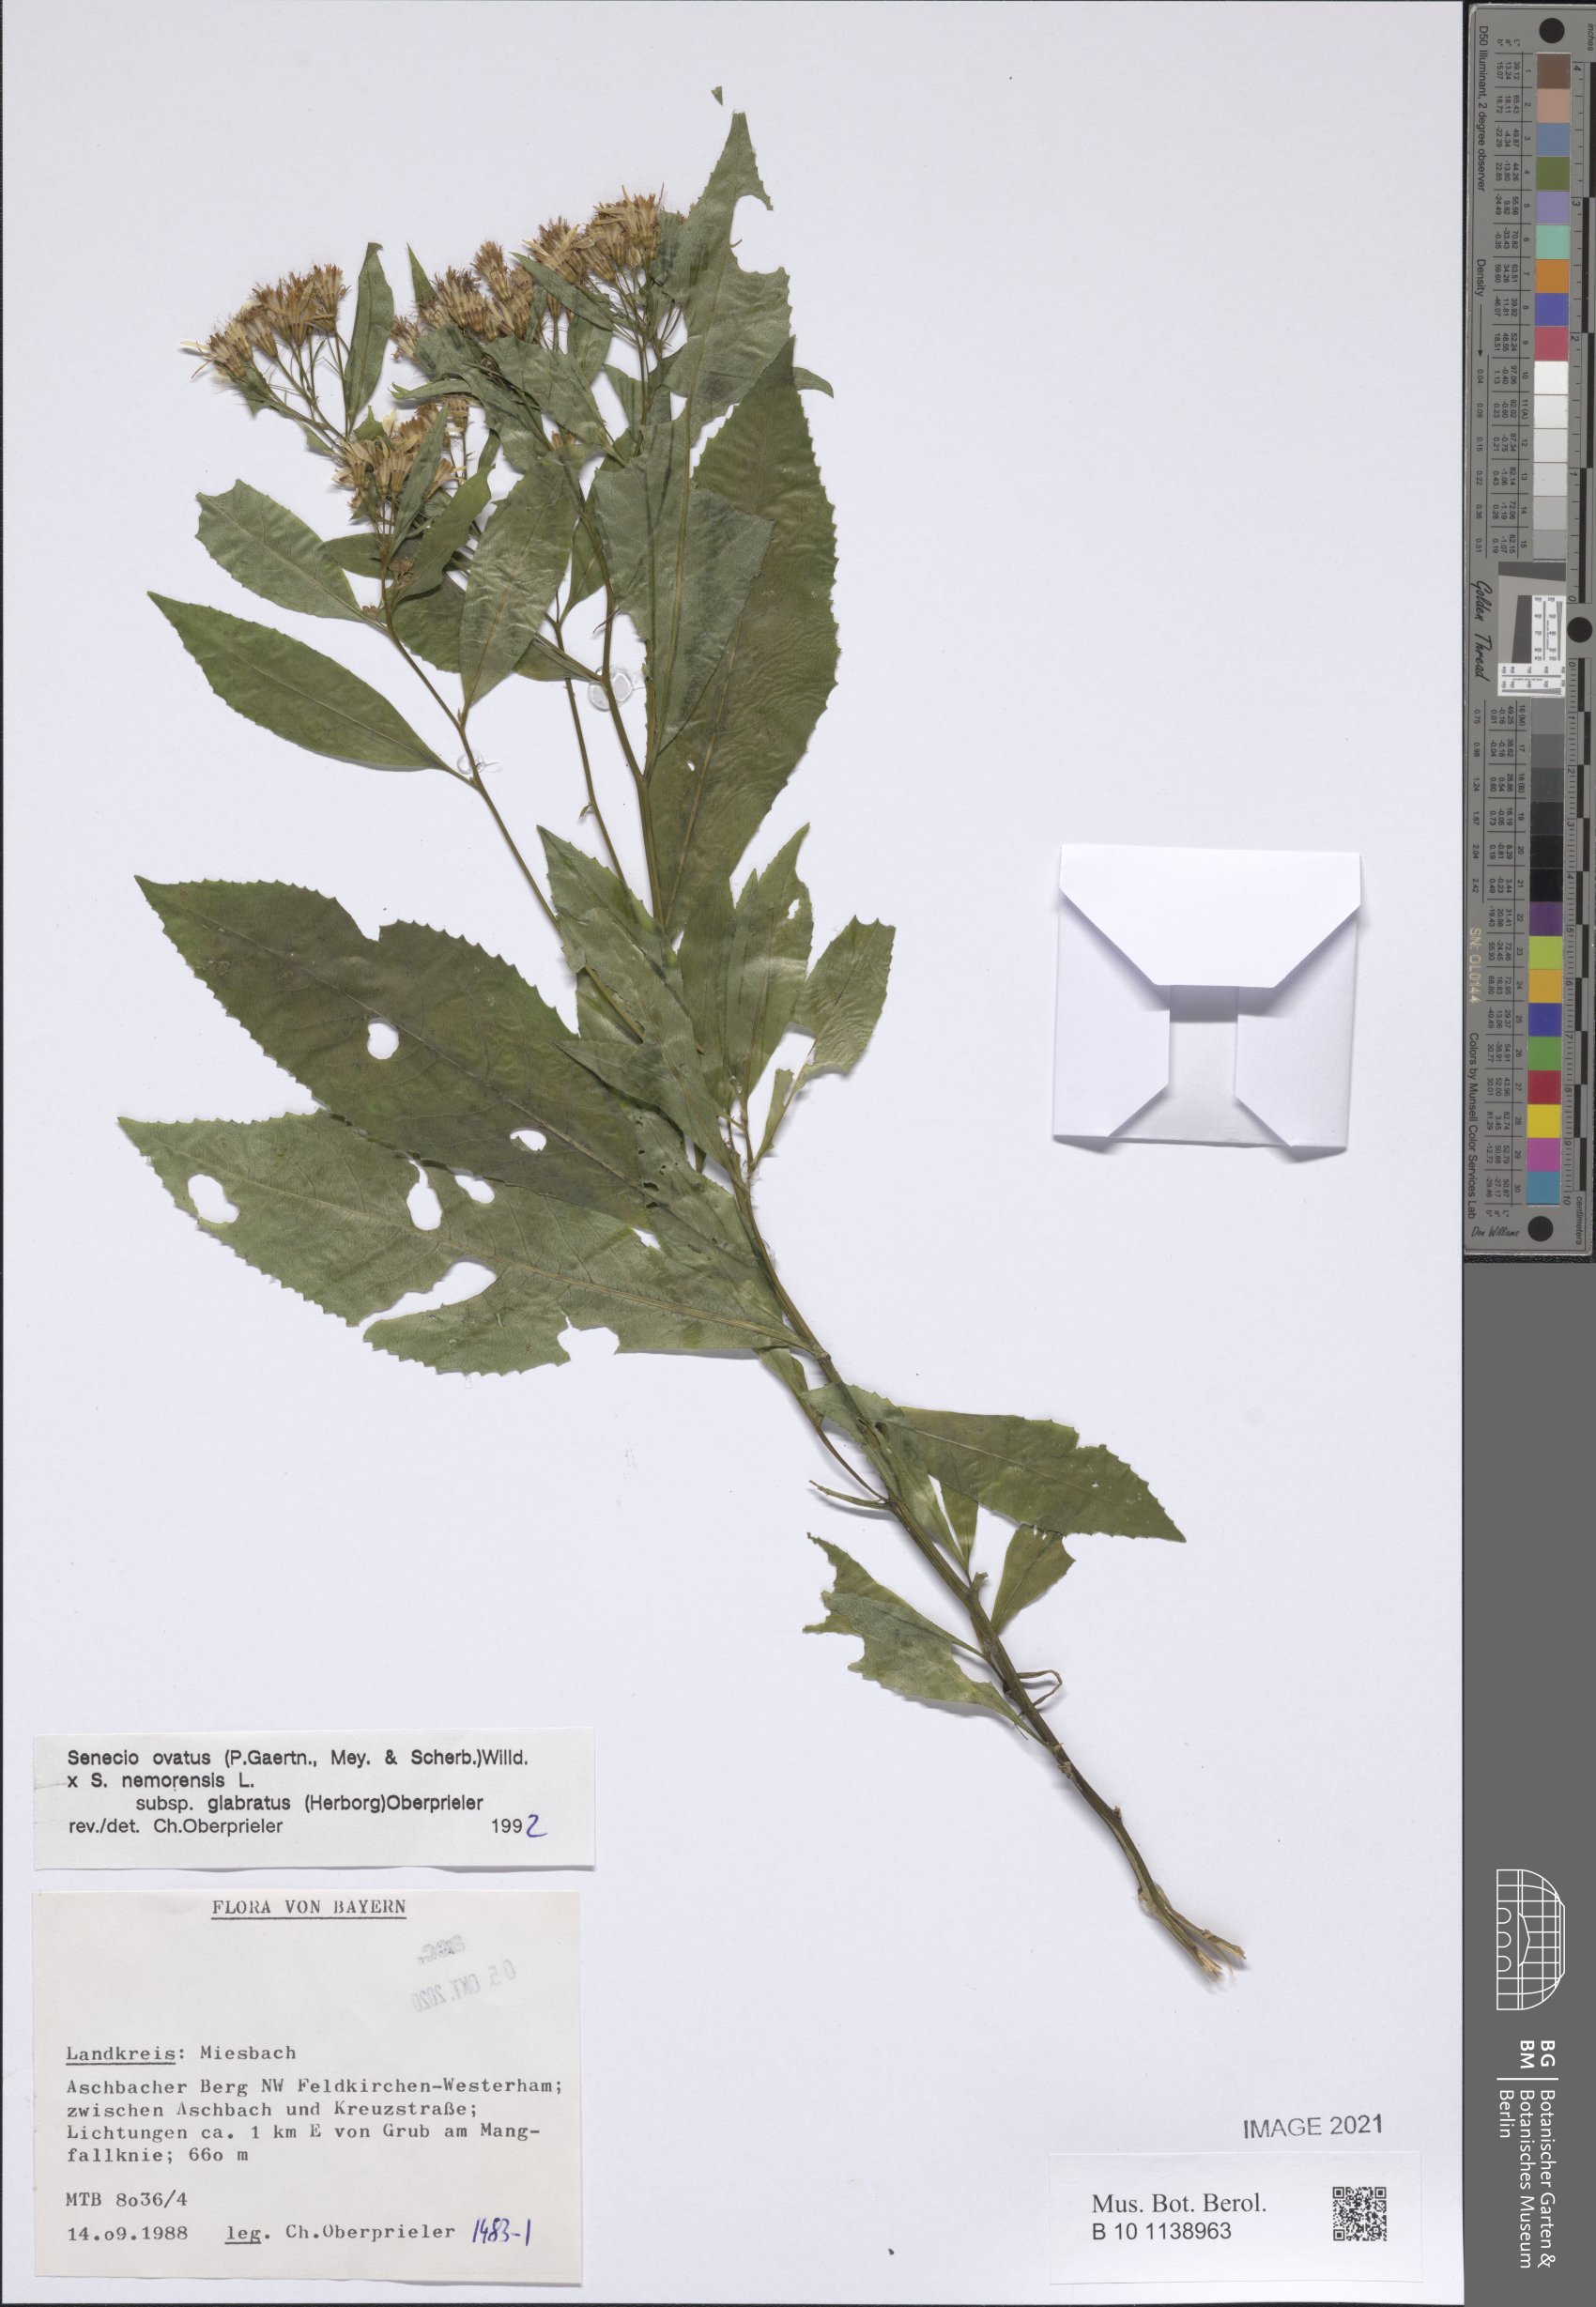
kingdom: Plantae
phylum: Tracheophyta
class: Magnoliopsida
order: Asterales
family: Asteraceae
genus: Senecio
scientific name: Senecio ovatus
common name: Wood ragwort
